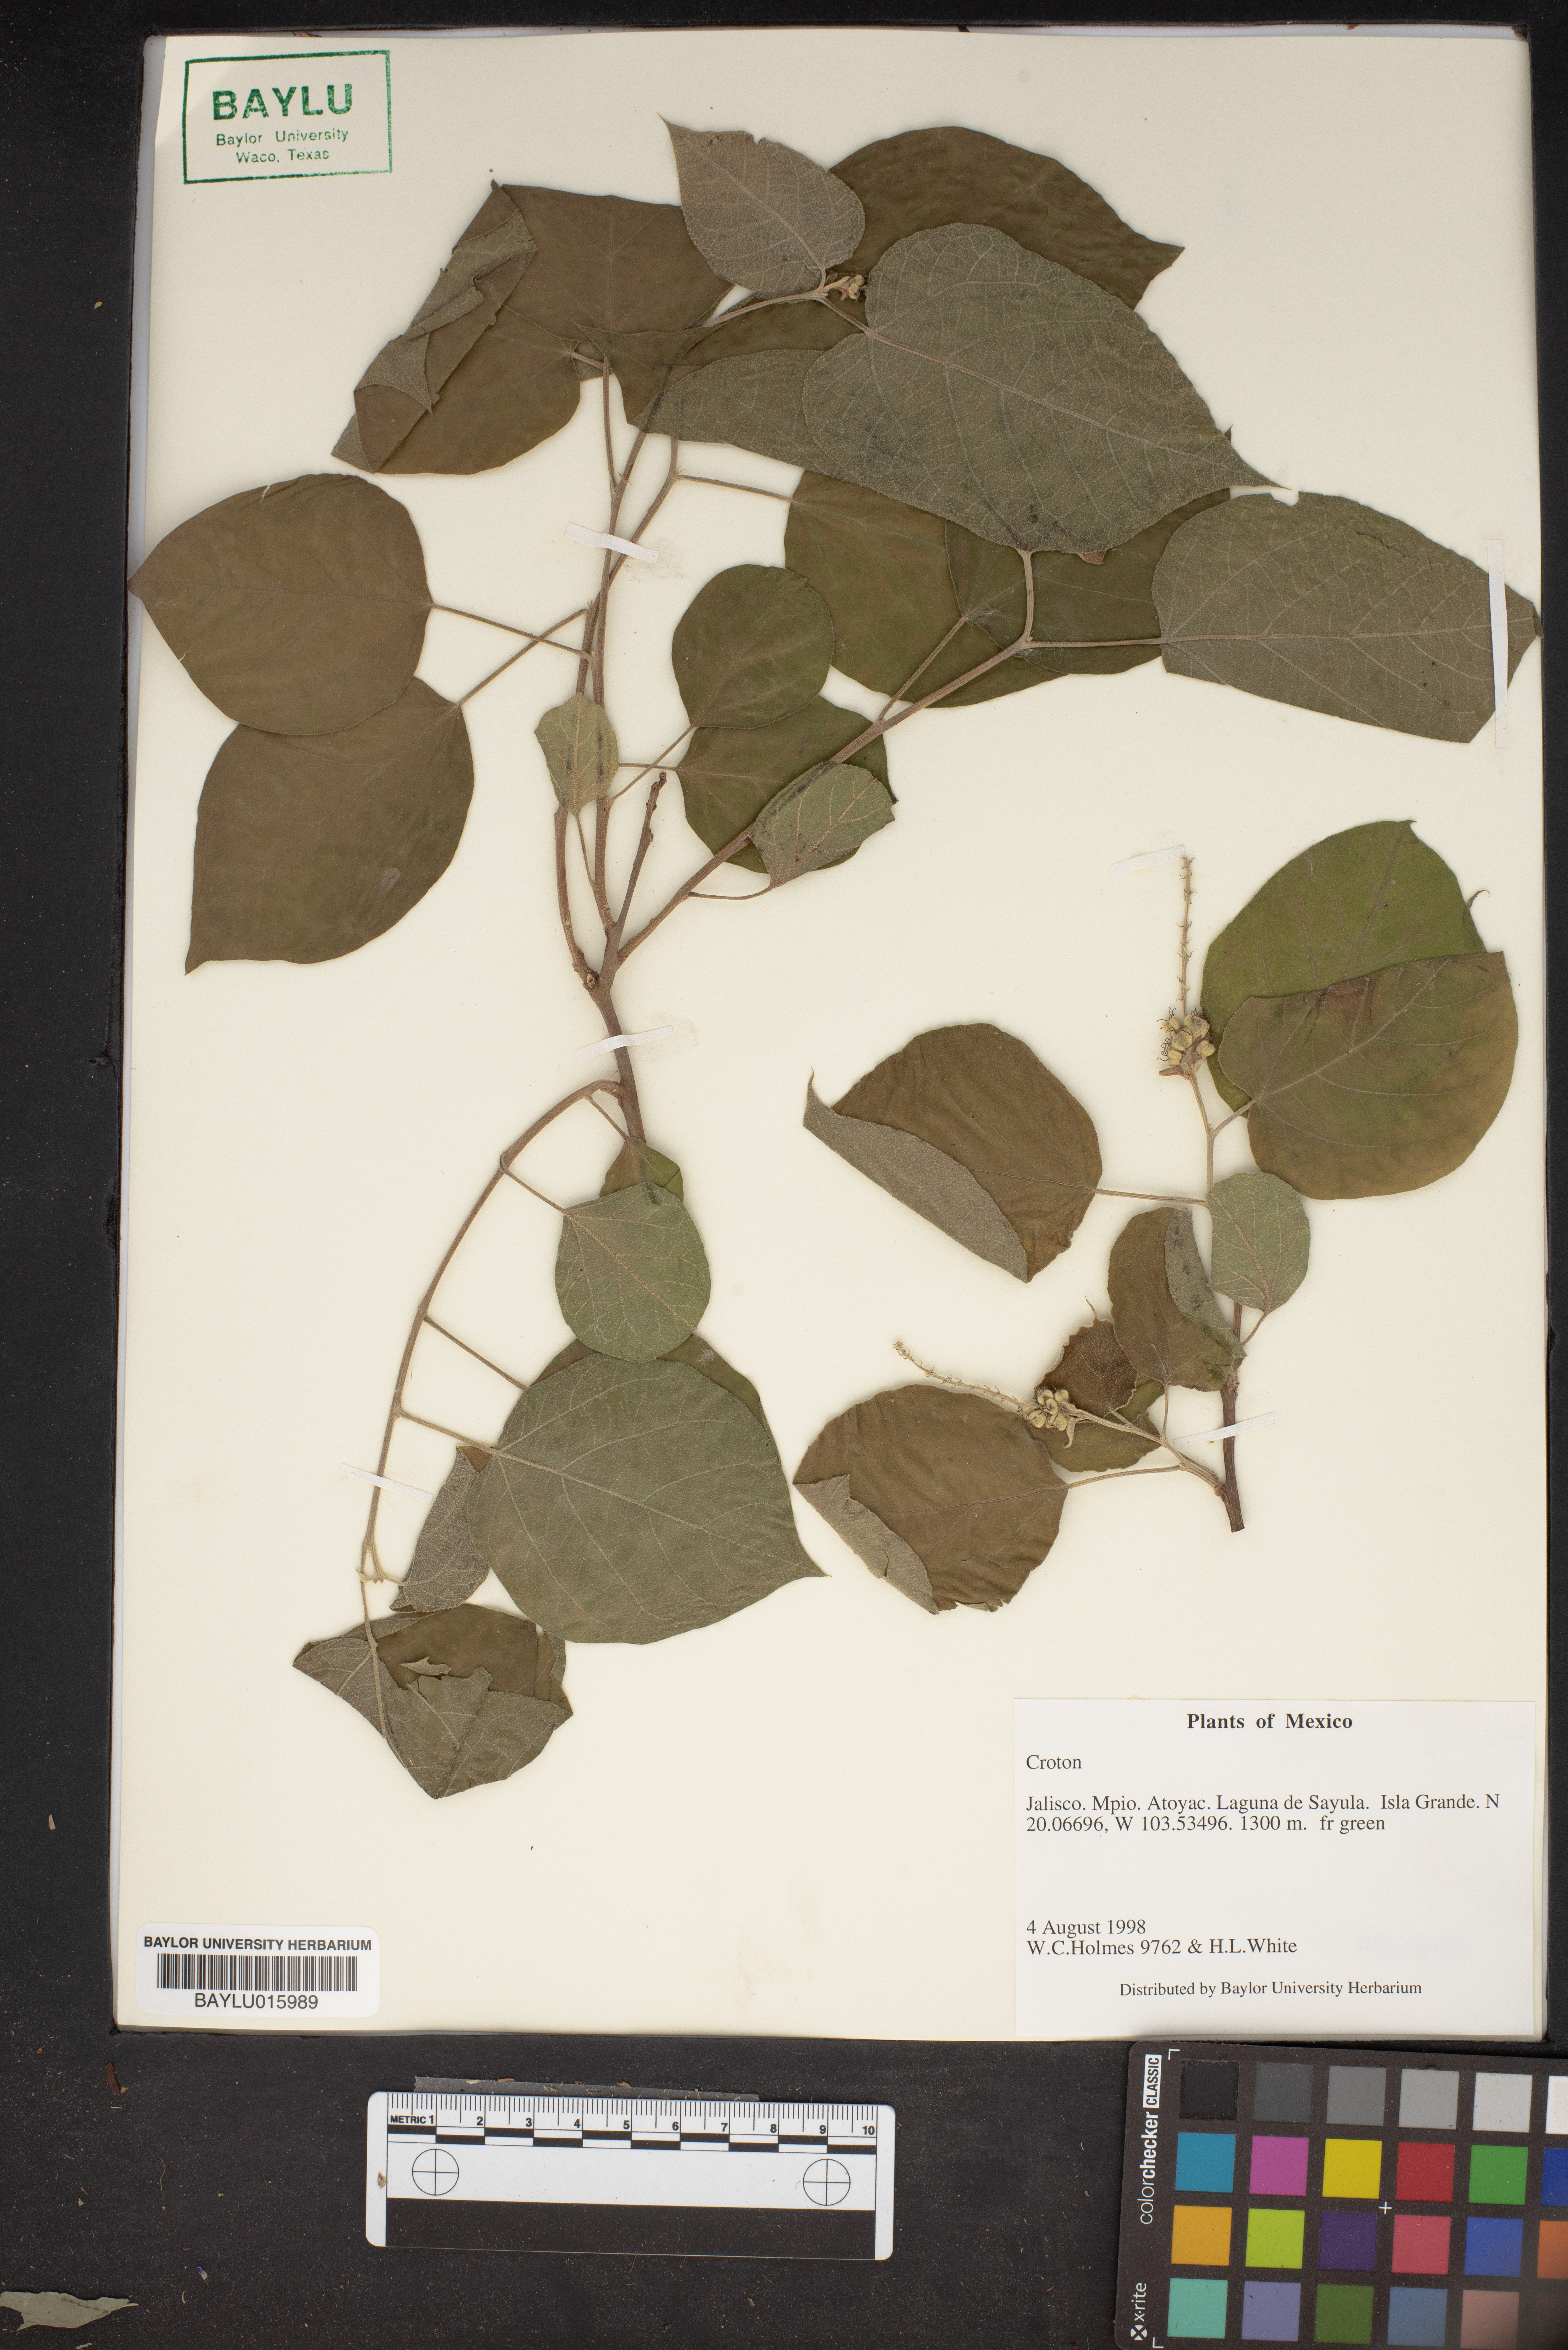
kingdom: Plantae
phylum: Tracheophyta
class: Magnoliopsida
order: Malpighiales
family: Euphorbiaceae
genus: Croton
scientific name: Croton
